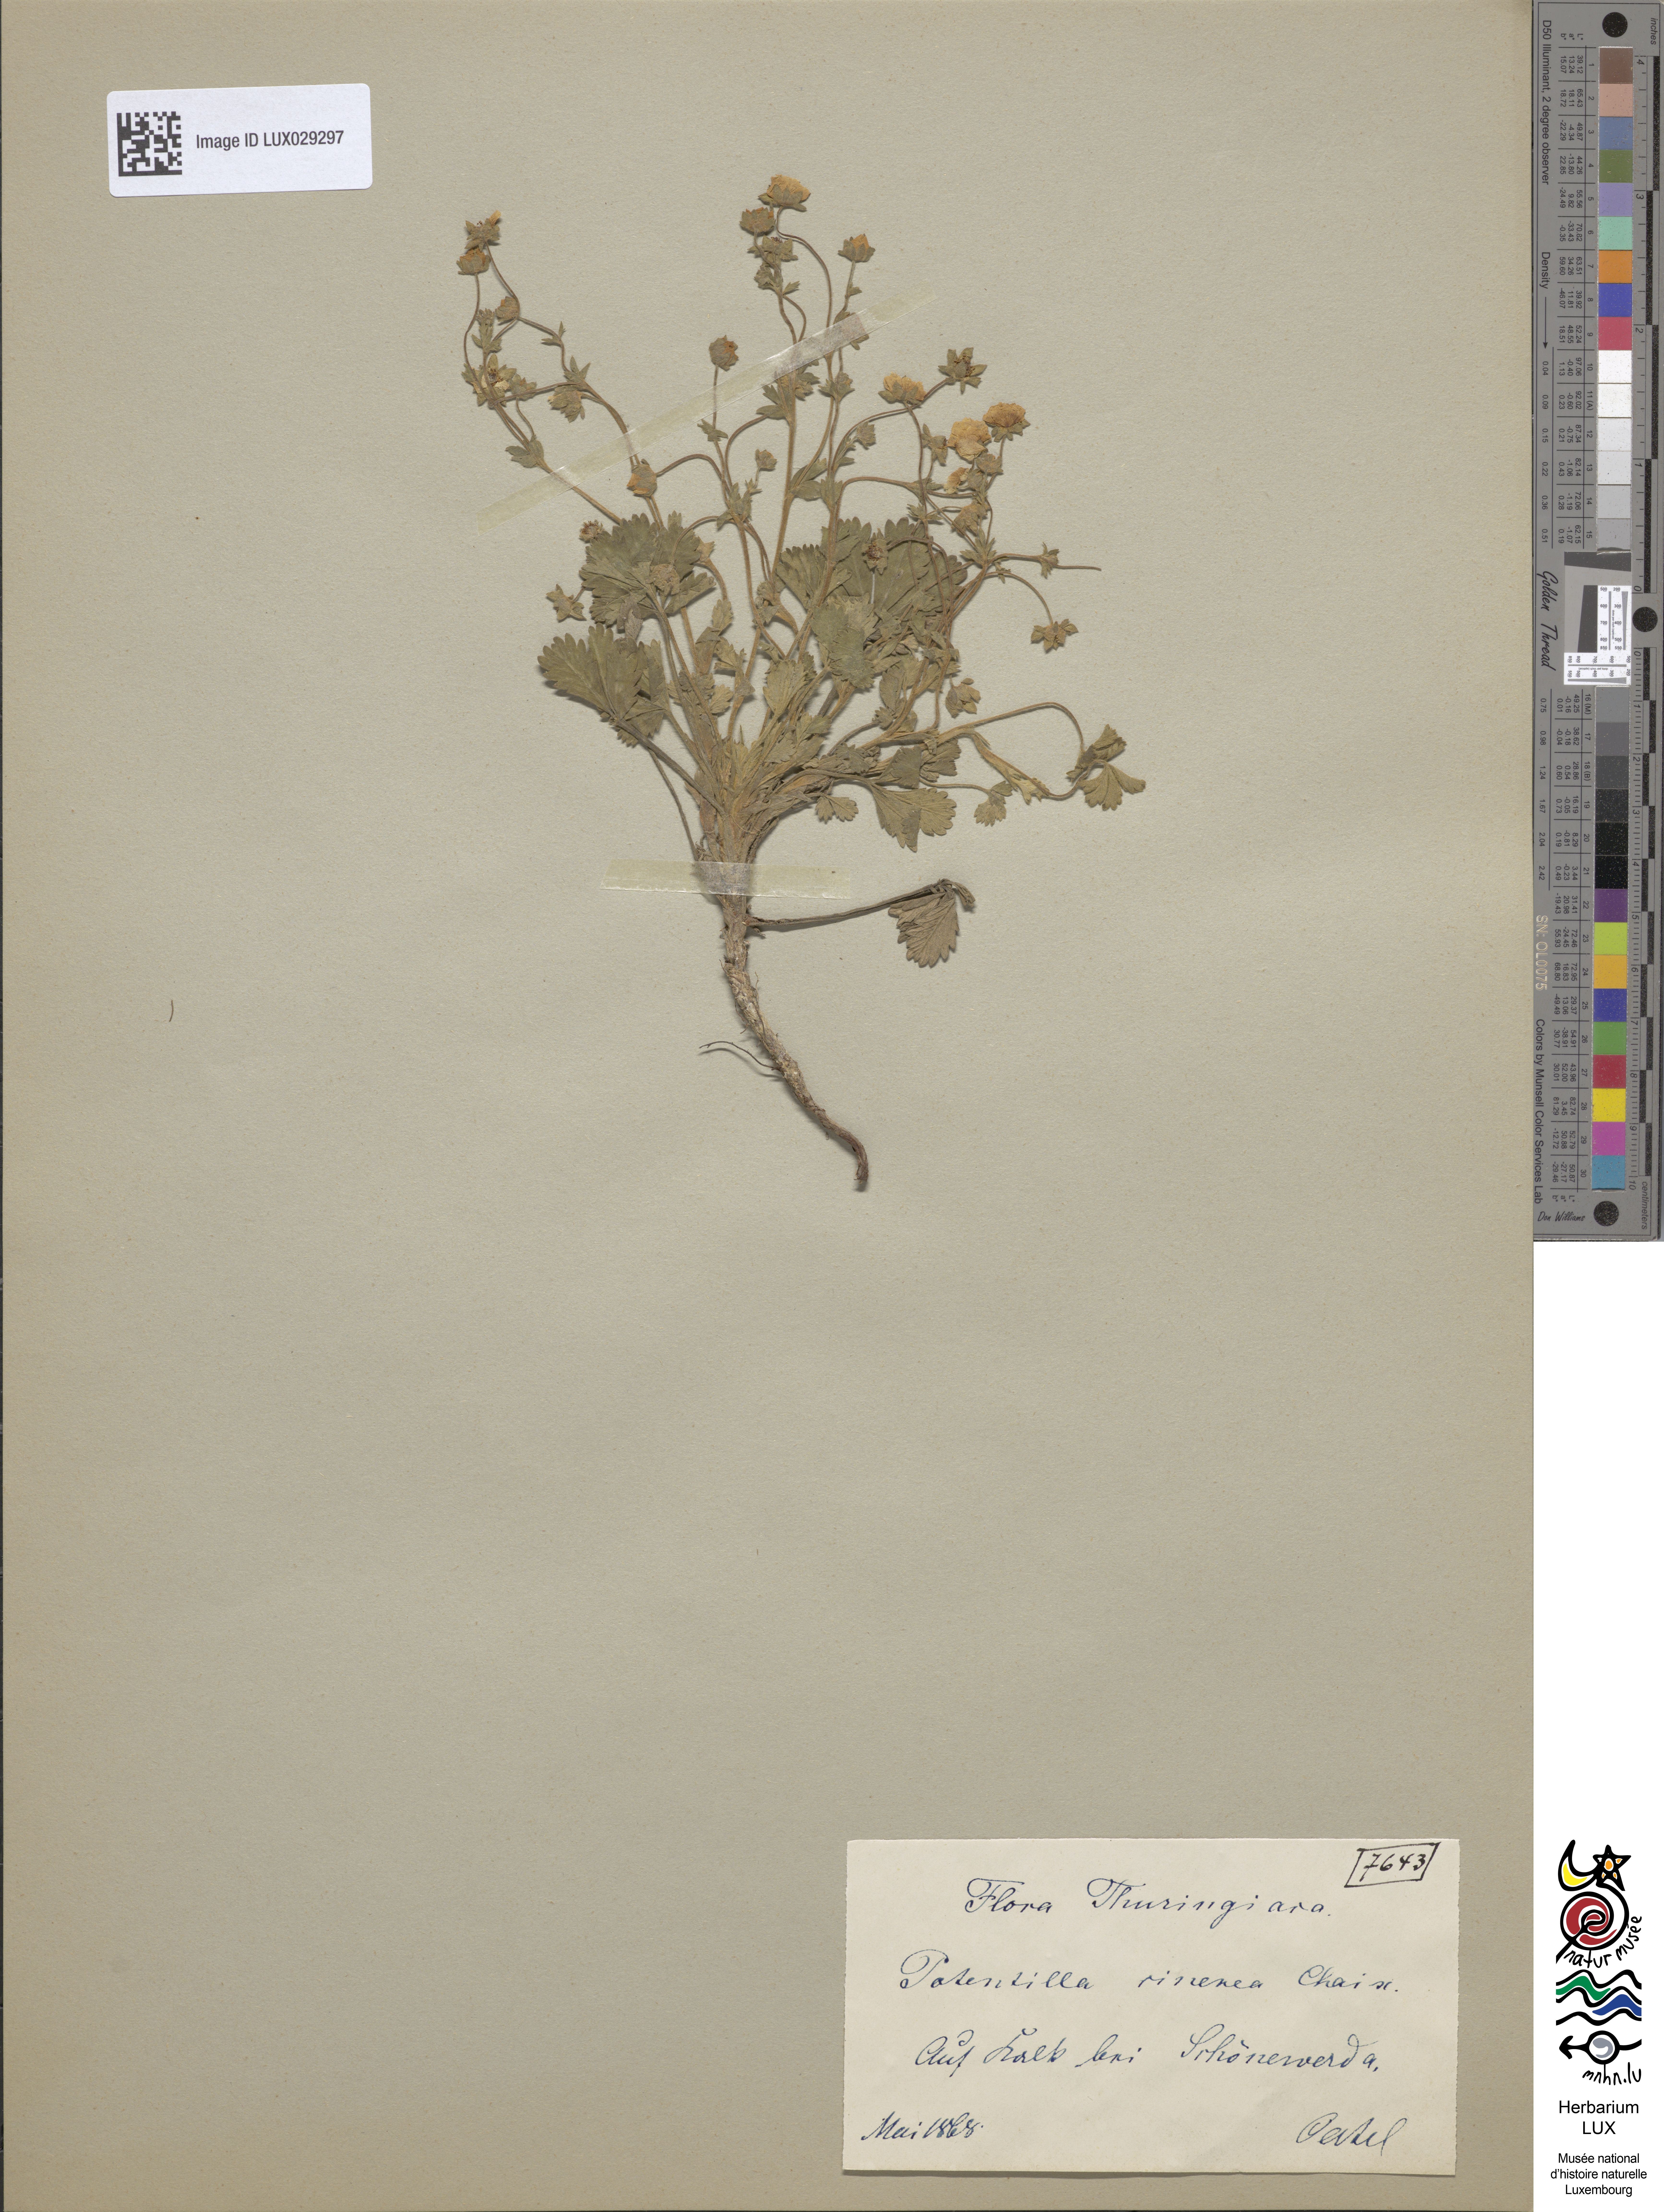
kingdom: Plantae
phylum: Tracheophyta
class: Magnoliopsida
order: Rosales
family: Rosaceae
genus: Potentilla
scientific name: Potentilla cinerea
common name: Ashy cinquefoil
